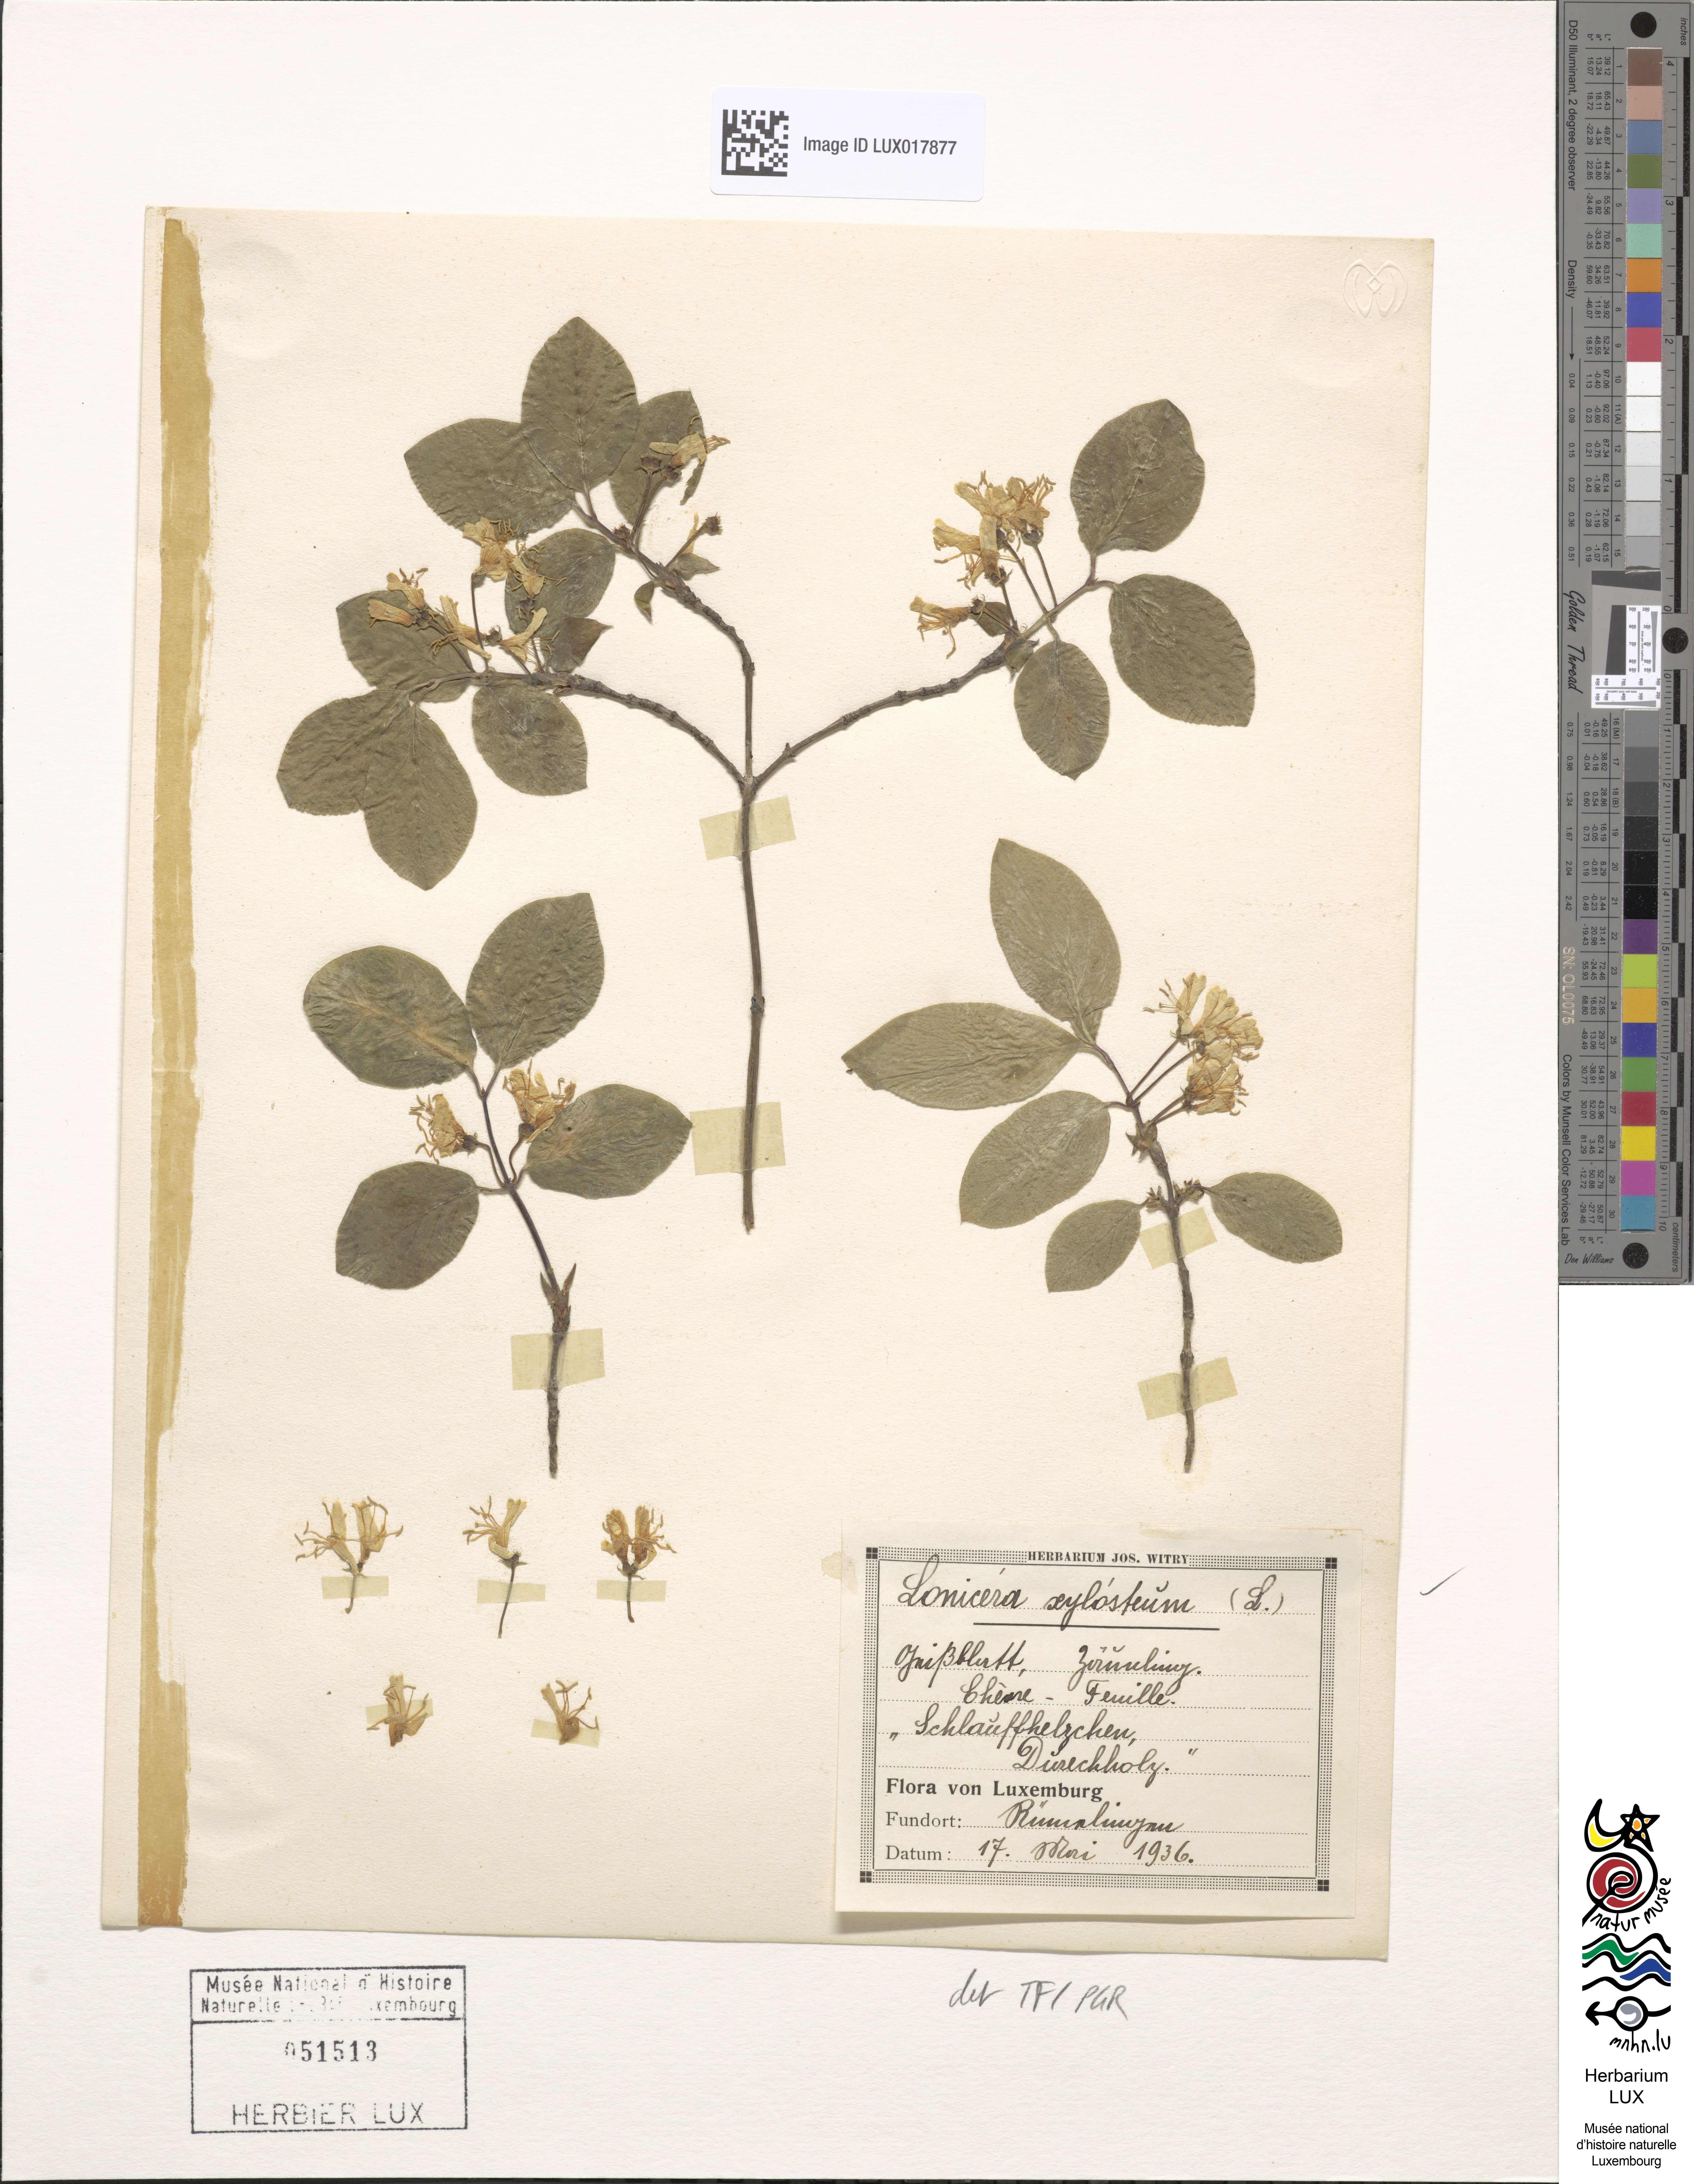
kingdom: Plantae
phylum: Tracheophyta
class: Magnoliopsida
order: Dipsacales
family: Caprifoliaceae
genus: Lonicera
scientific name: Lonicera xylosteum
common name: Fly honeysuckle
